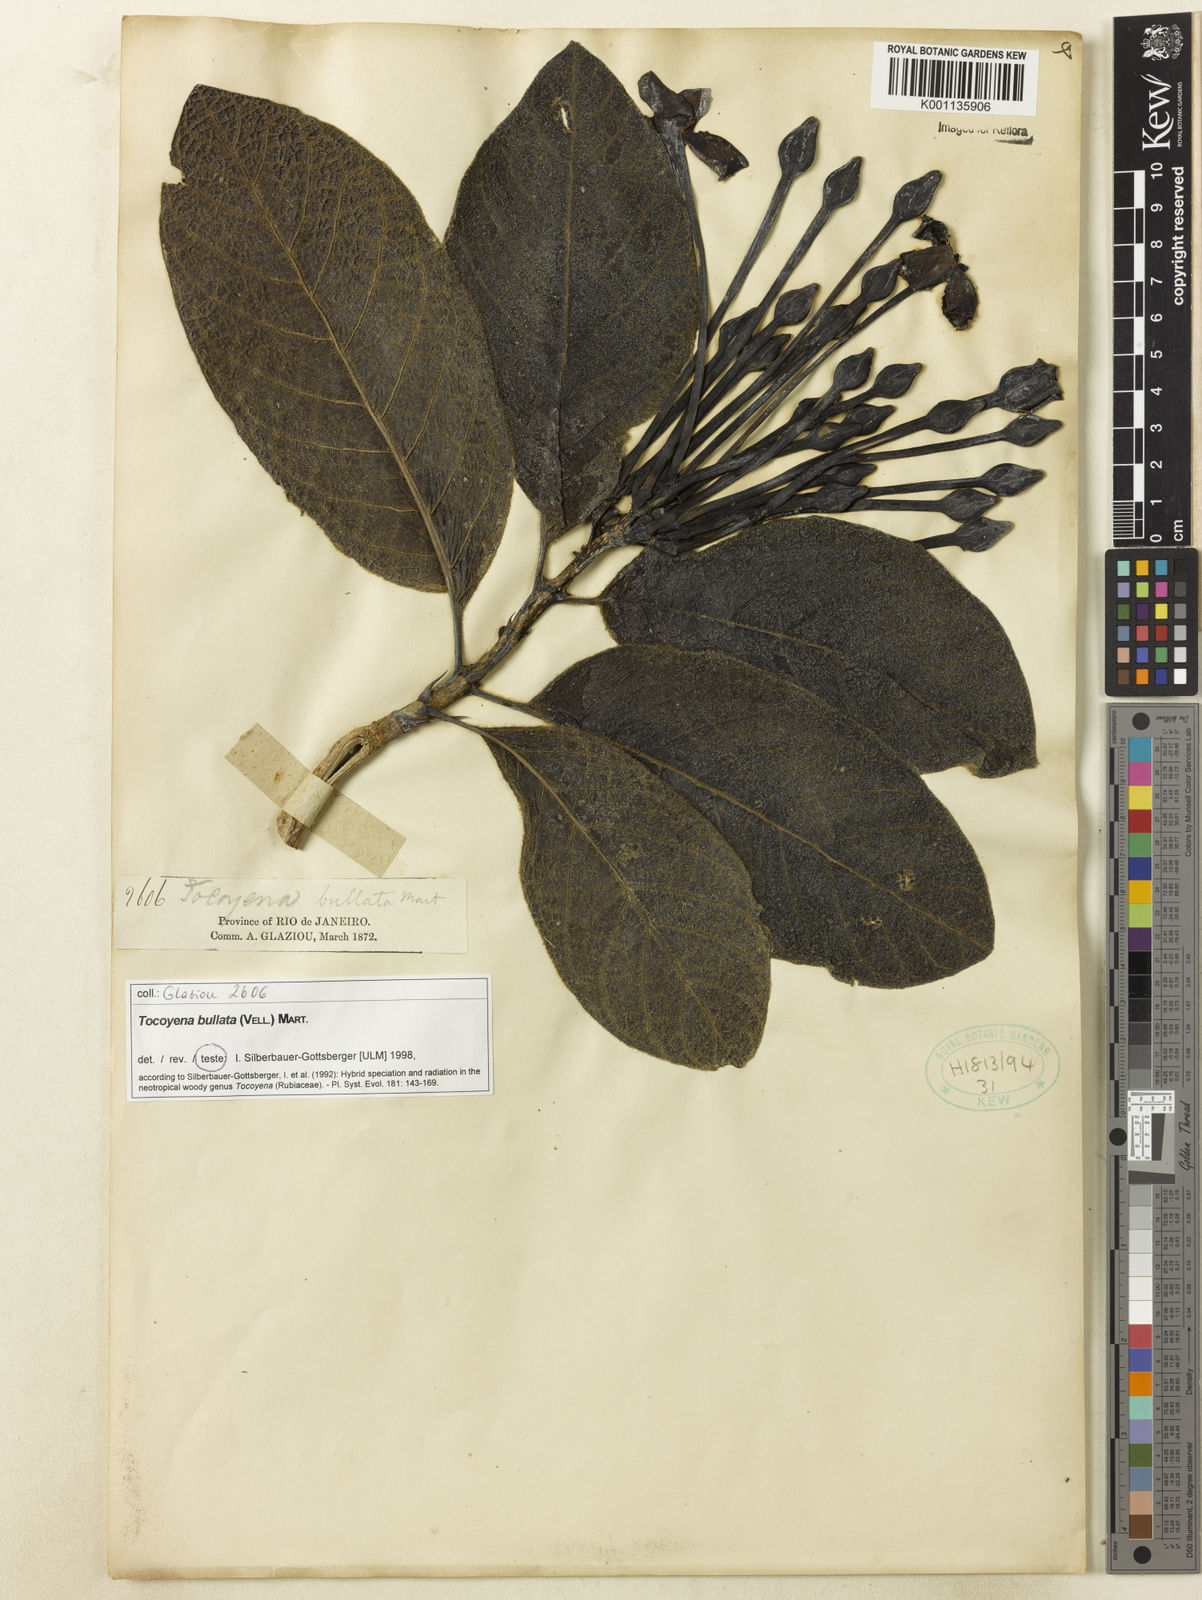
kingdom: Plantae
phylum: Tracheophyta
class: Magnoliopsida
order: Gentianales
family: Rubiaceae
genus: Tocoyena
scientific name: Tocoyena bullata
